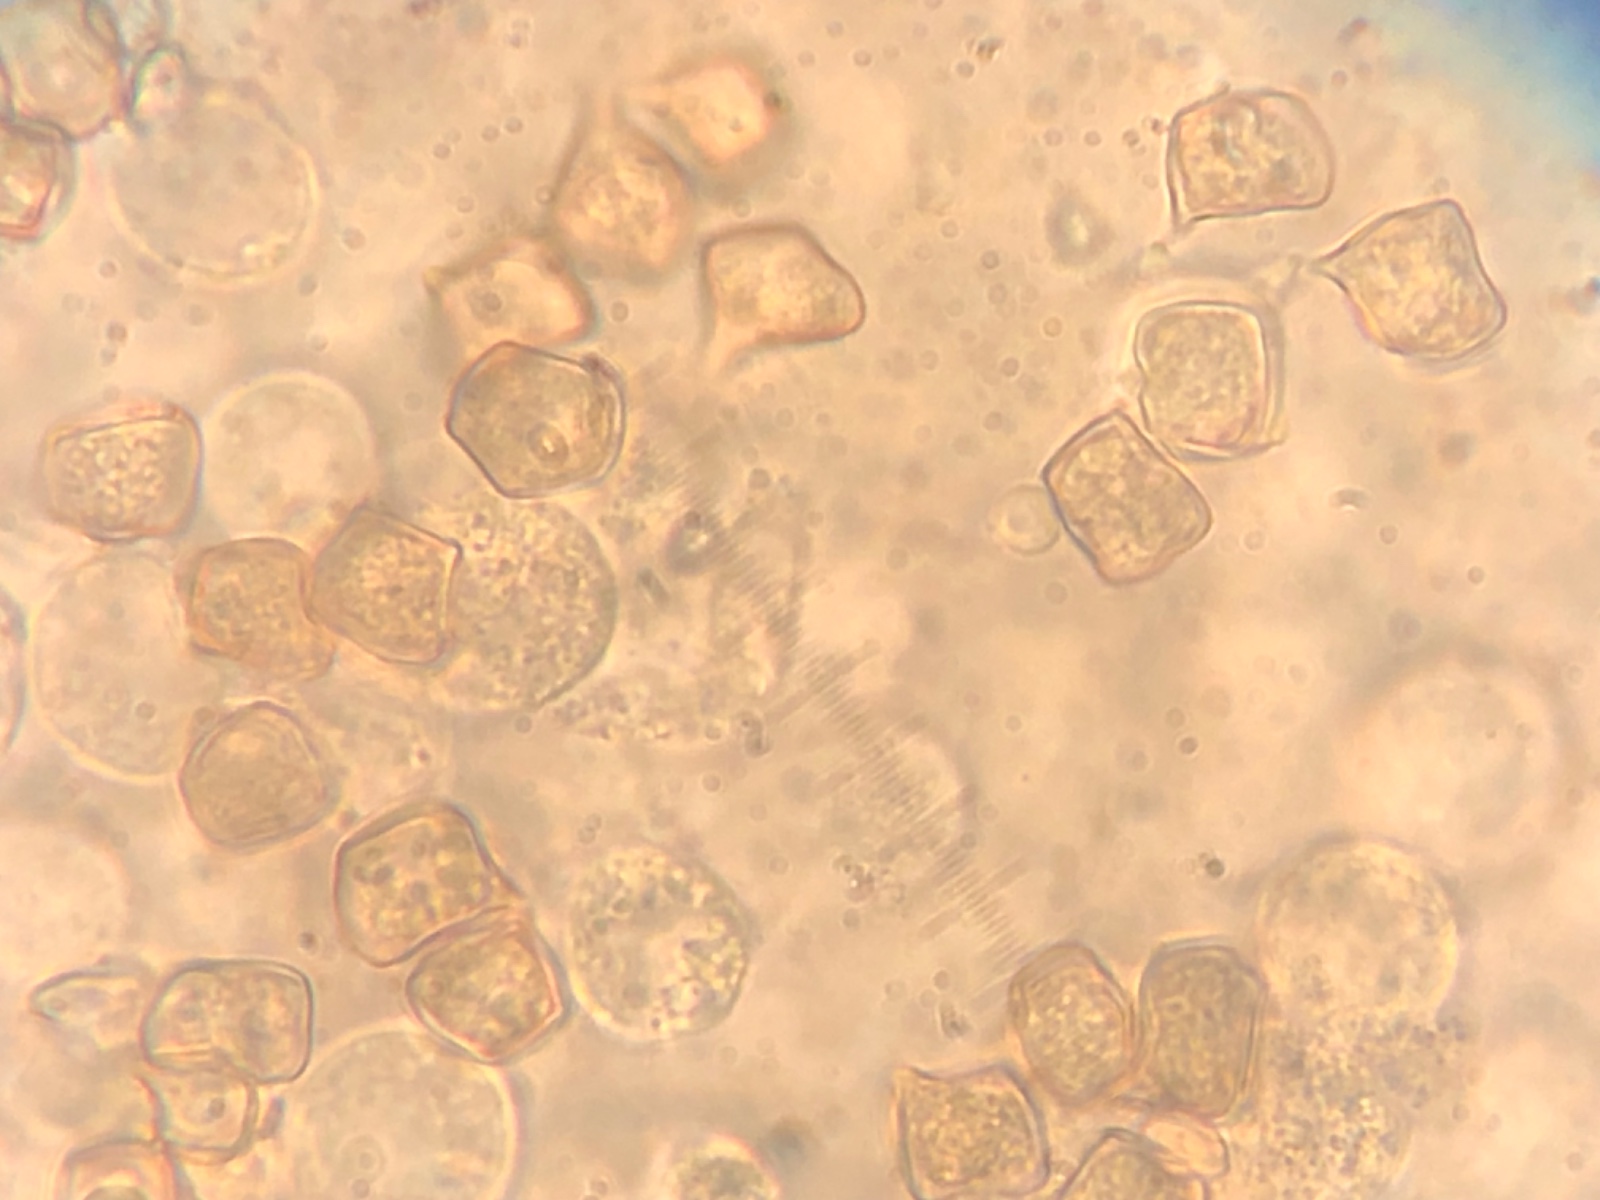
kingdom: Fungi
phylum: Basidiomycota
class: Agaricomycetes
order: Agaricales
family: Entolomataceae
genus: Entoloma
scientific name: Entoloma cocles
